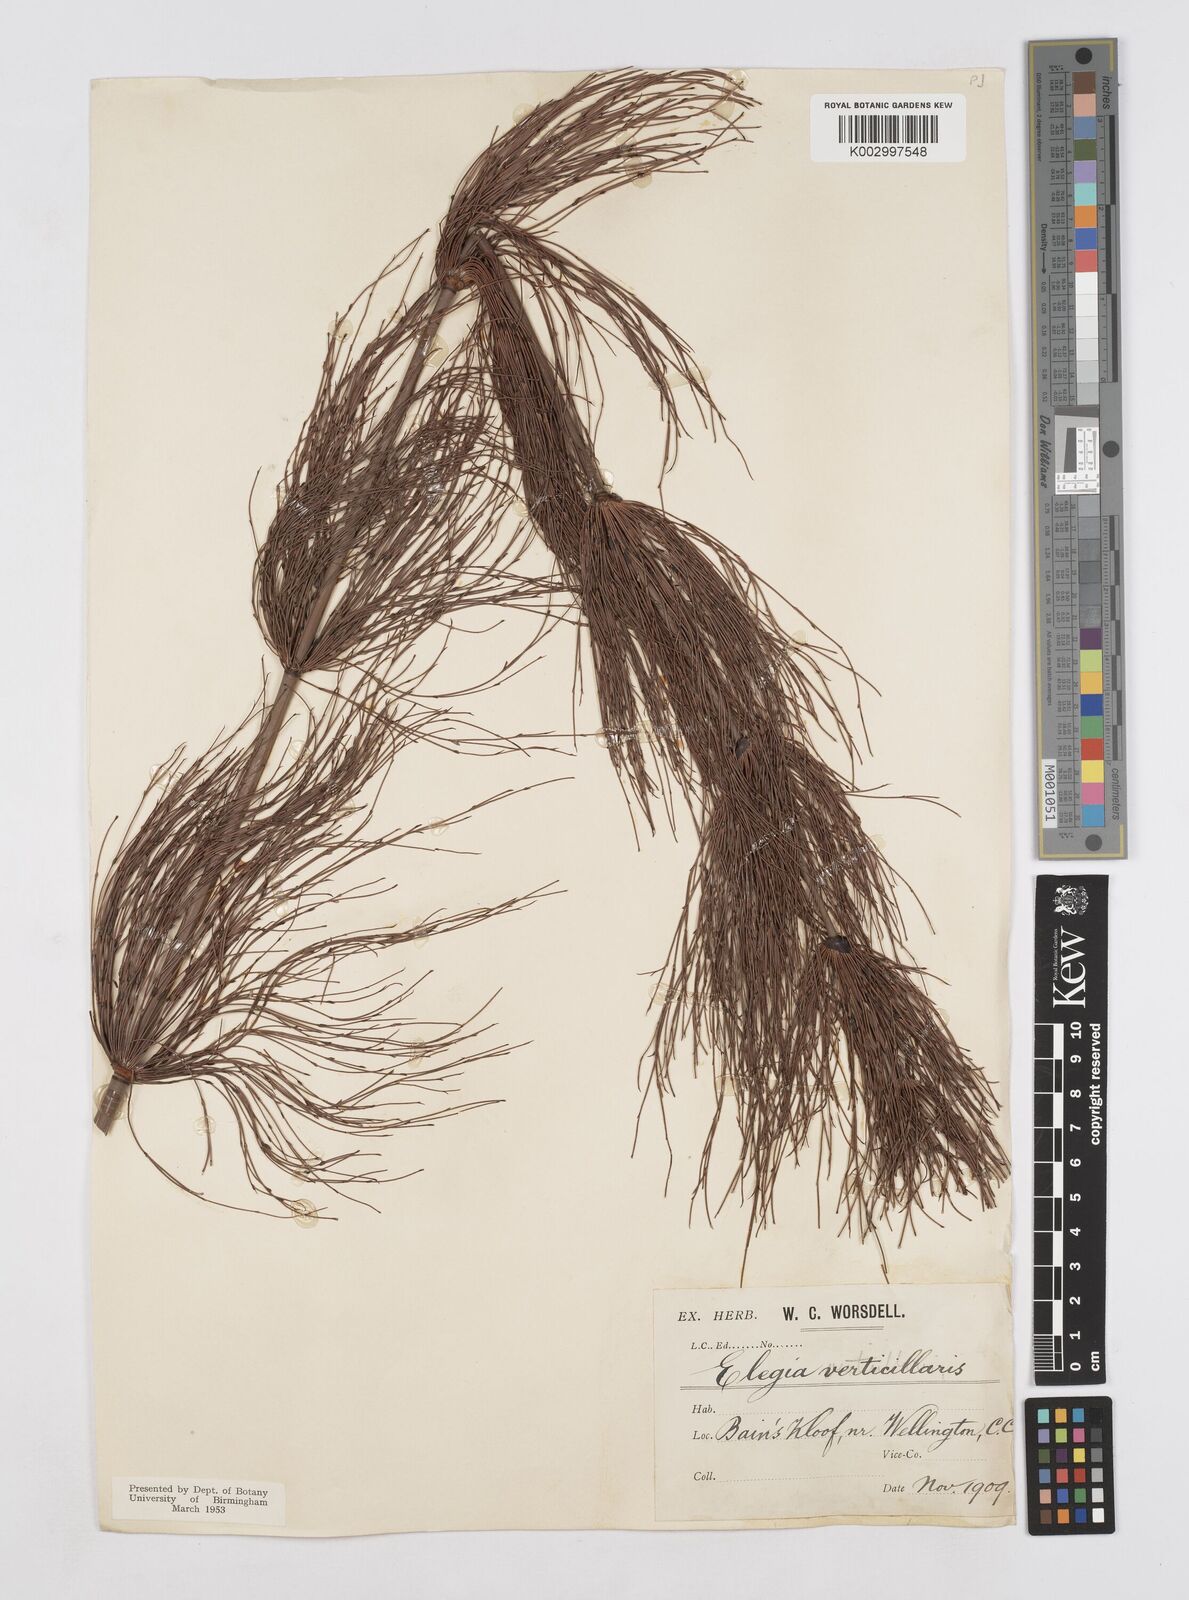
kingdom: Plantae
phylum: Tracheophyta
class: Liliopsida
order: Poales
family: Restionaceae
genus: Elegia
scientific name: Elegia capensis
